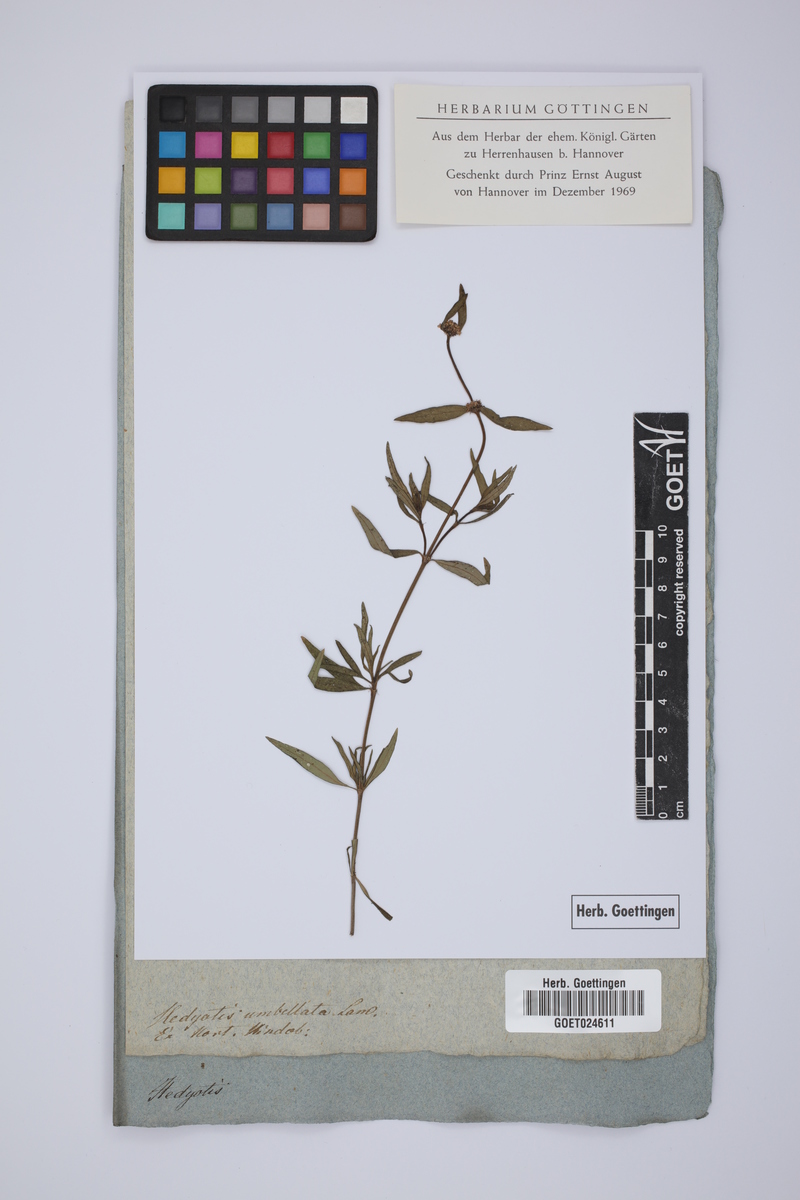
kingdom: Plantae
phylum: Tracheophyta
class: Magnoliopsida
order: Gentianales
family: Rubiaceae
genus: Oldenlandia
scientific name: Oldenlandia umbellata
